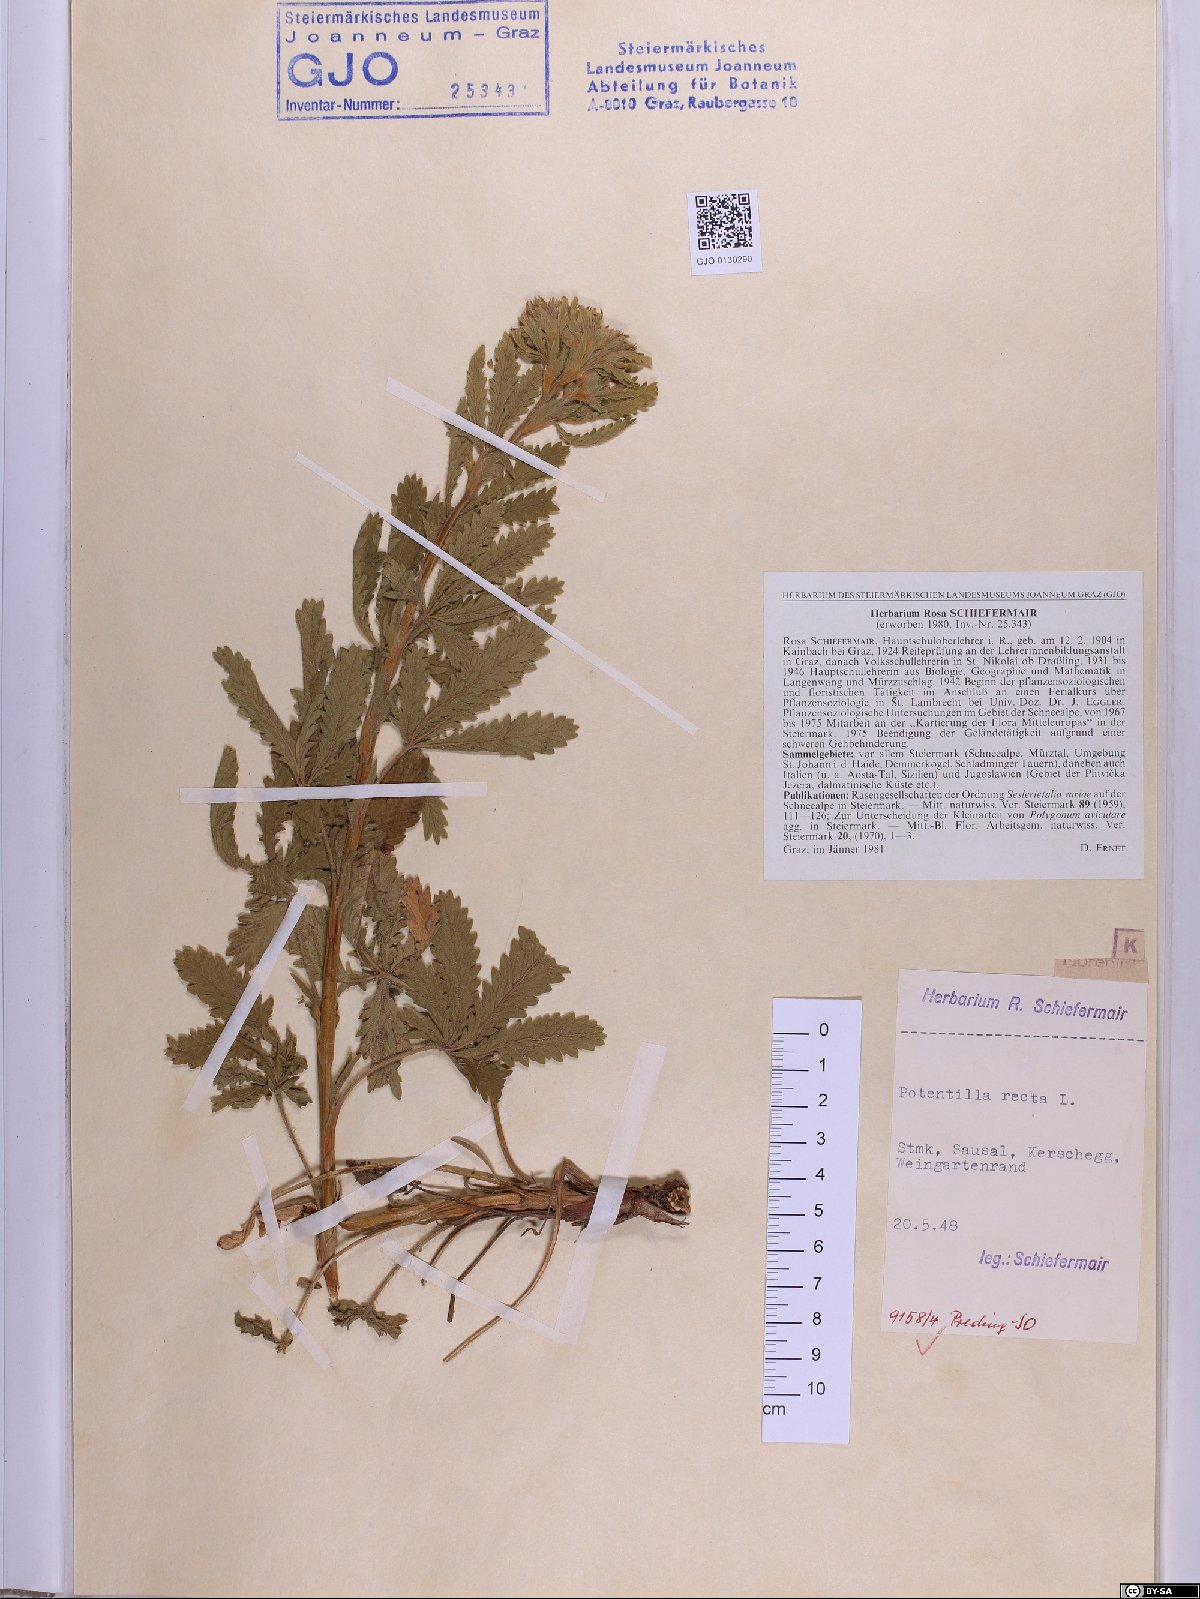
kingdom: Plantae
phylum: Tracheophyta
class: Magnoliopsida
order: Rosales
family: Rosaceae
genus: Potentilla
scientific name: Potentilla recta
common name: Sulphur cinquefoil
